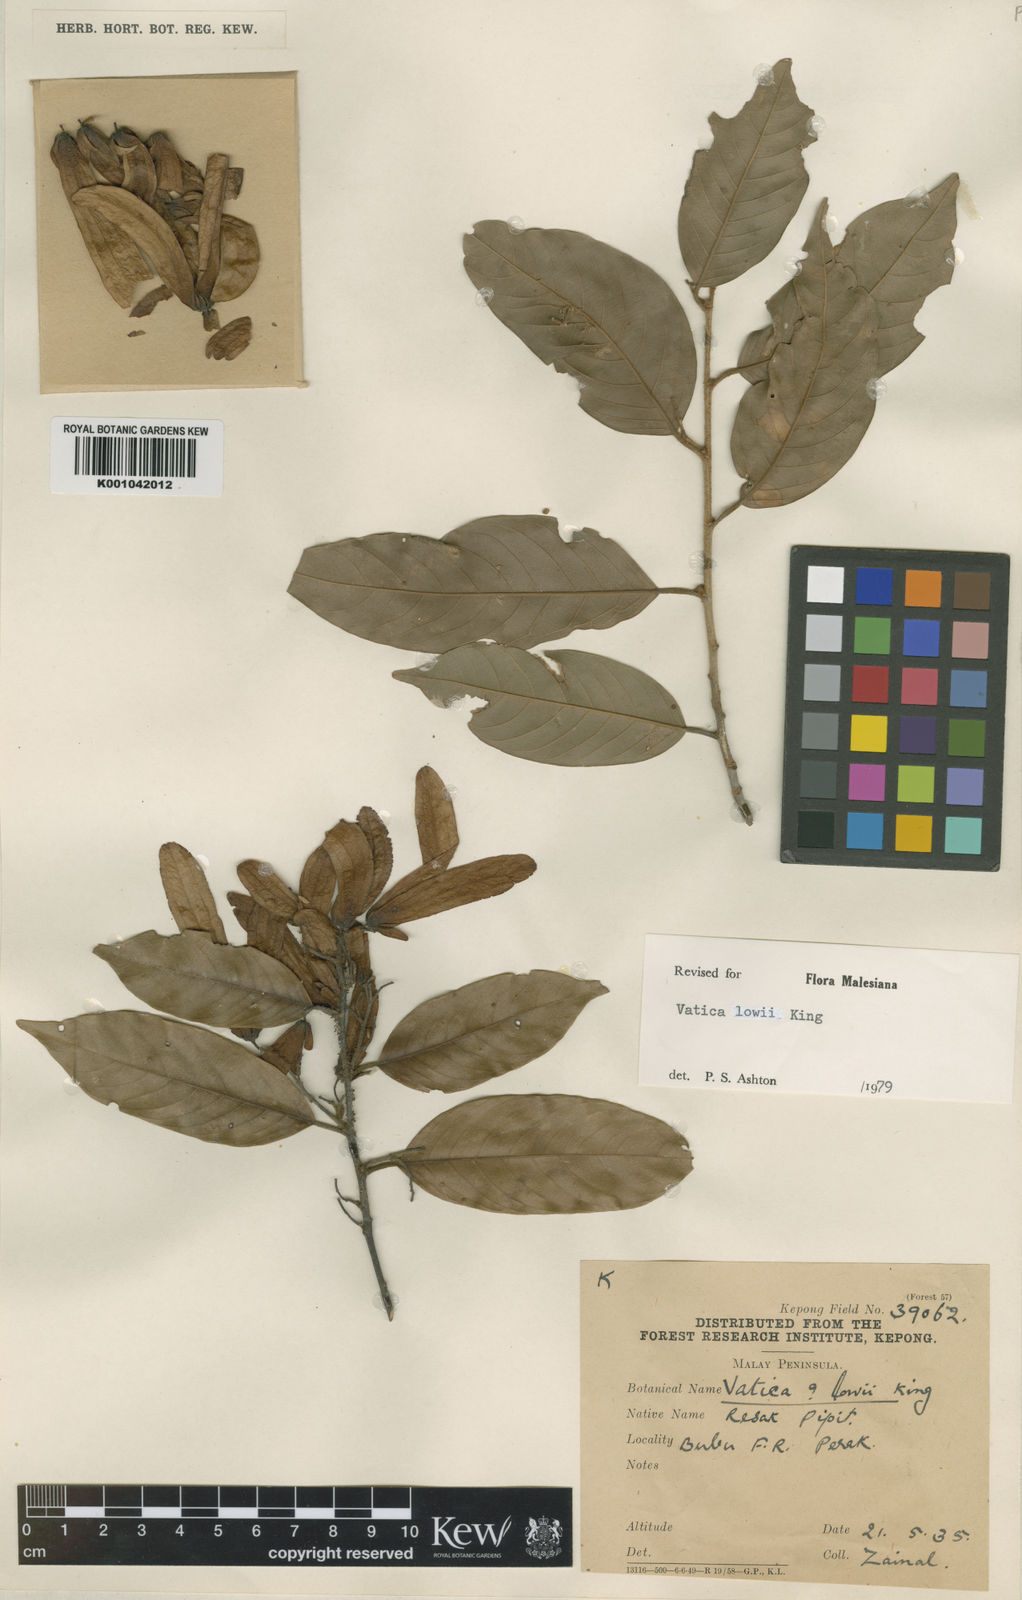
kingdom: Plantae
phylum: Tracheophyta
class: Magnoliopsida
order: Malvales
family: Dipterocarpaceae
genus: Vatica
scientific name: Vatica lowii
